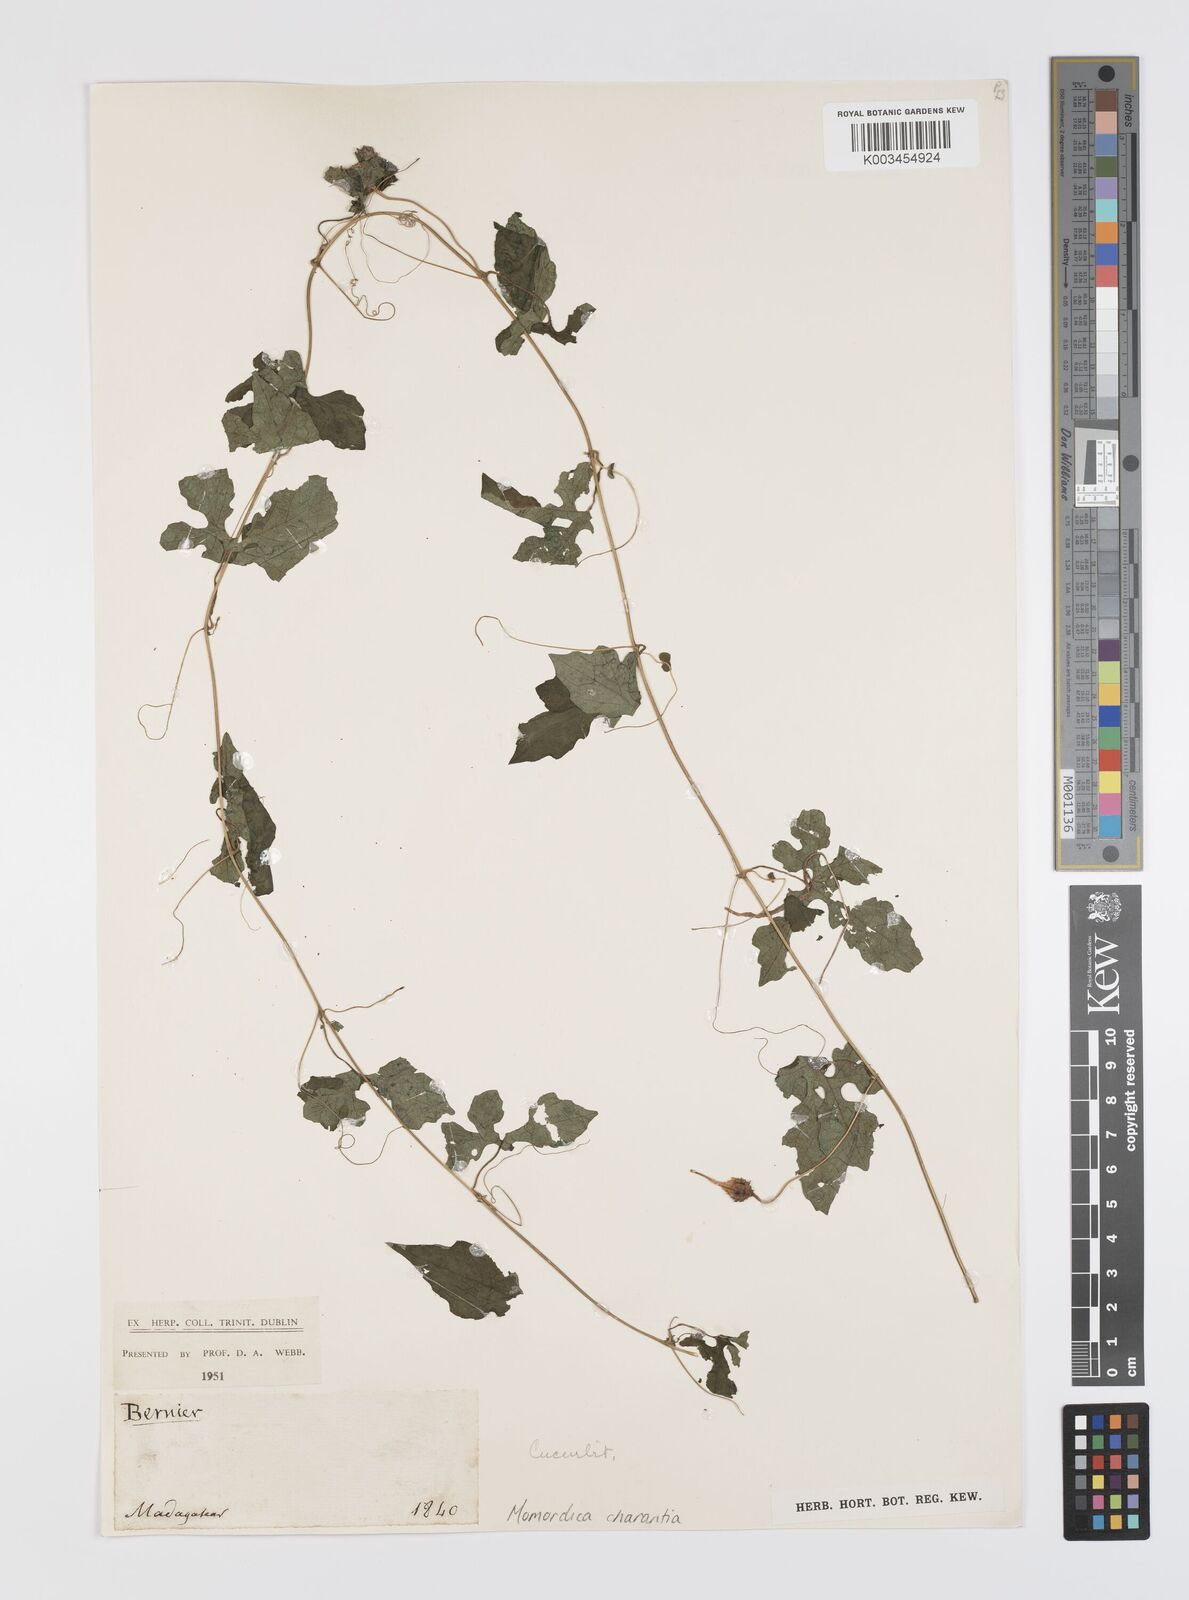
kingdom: Plantae
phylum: Tracheophyta
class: Magnoliopsida
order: Cucurbitales
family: Cucurbitaceae
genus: Momordica
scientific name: Momordica charantia
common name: Balsampear
